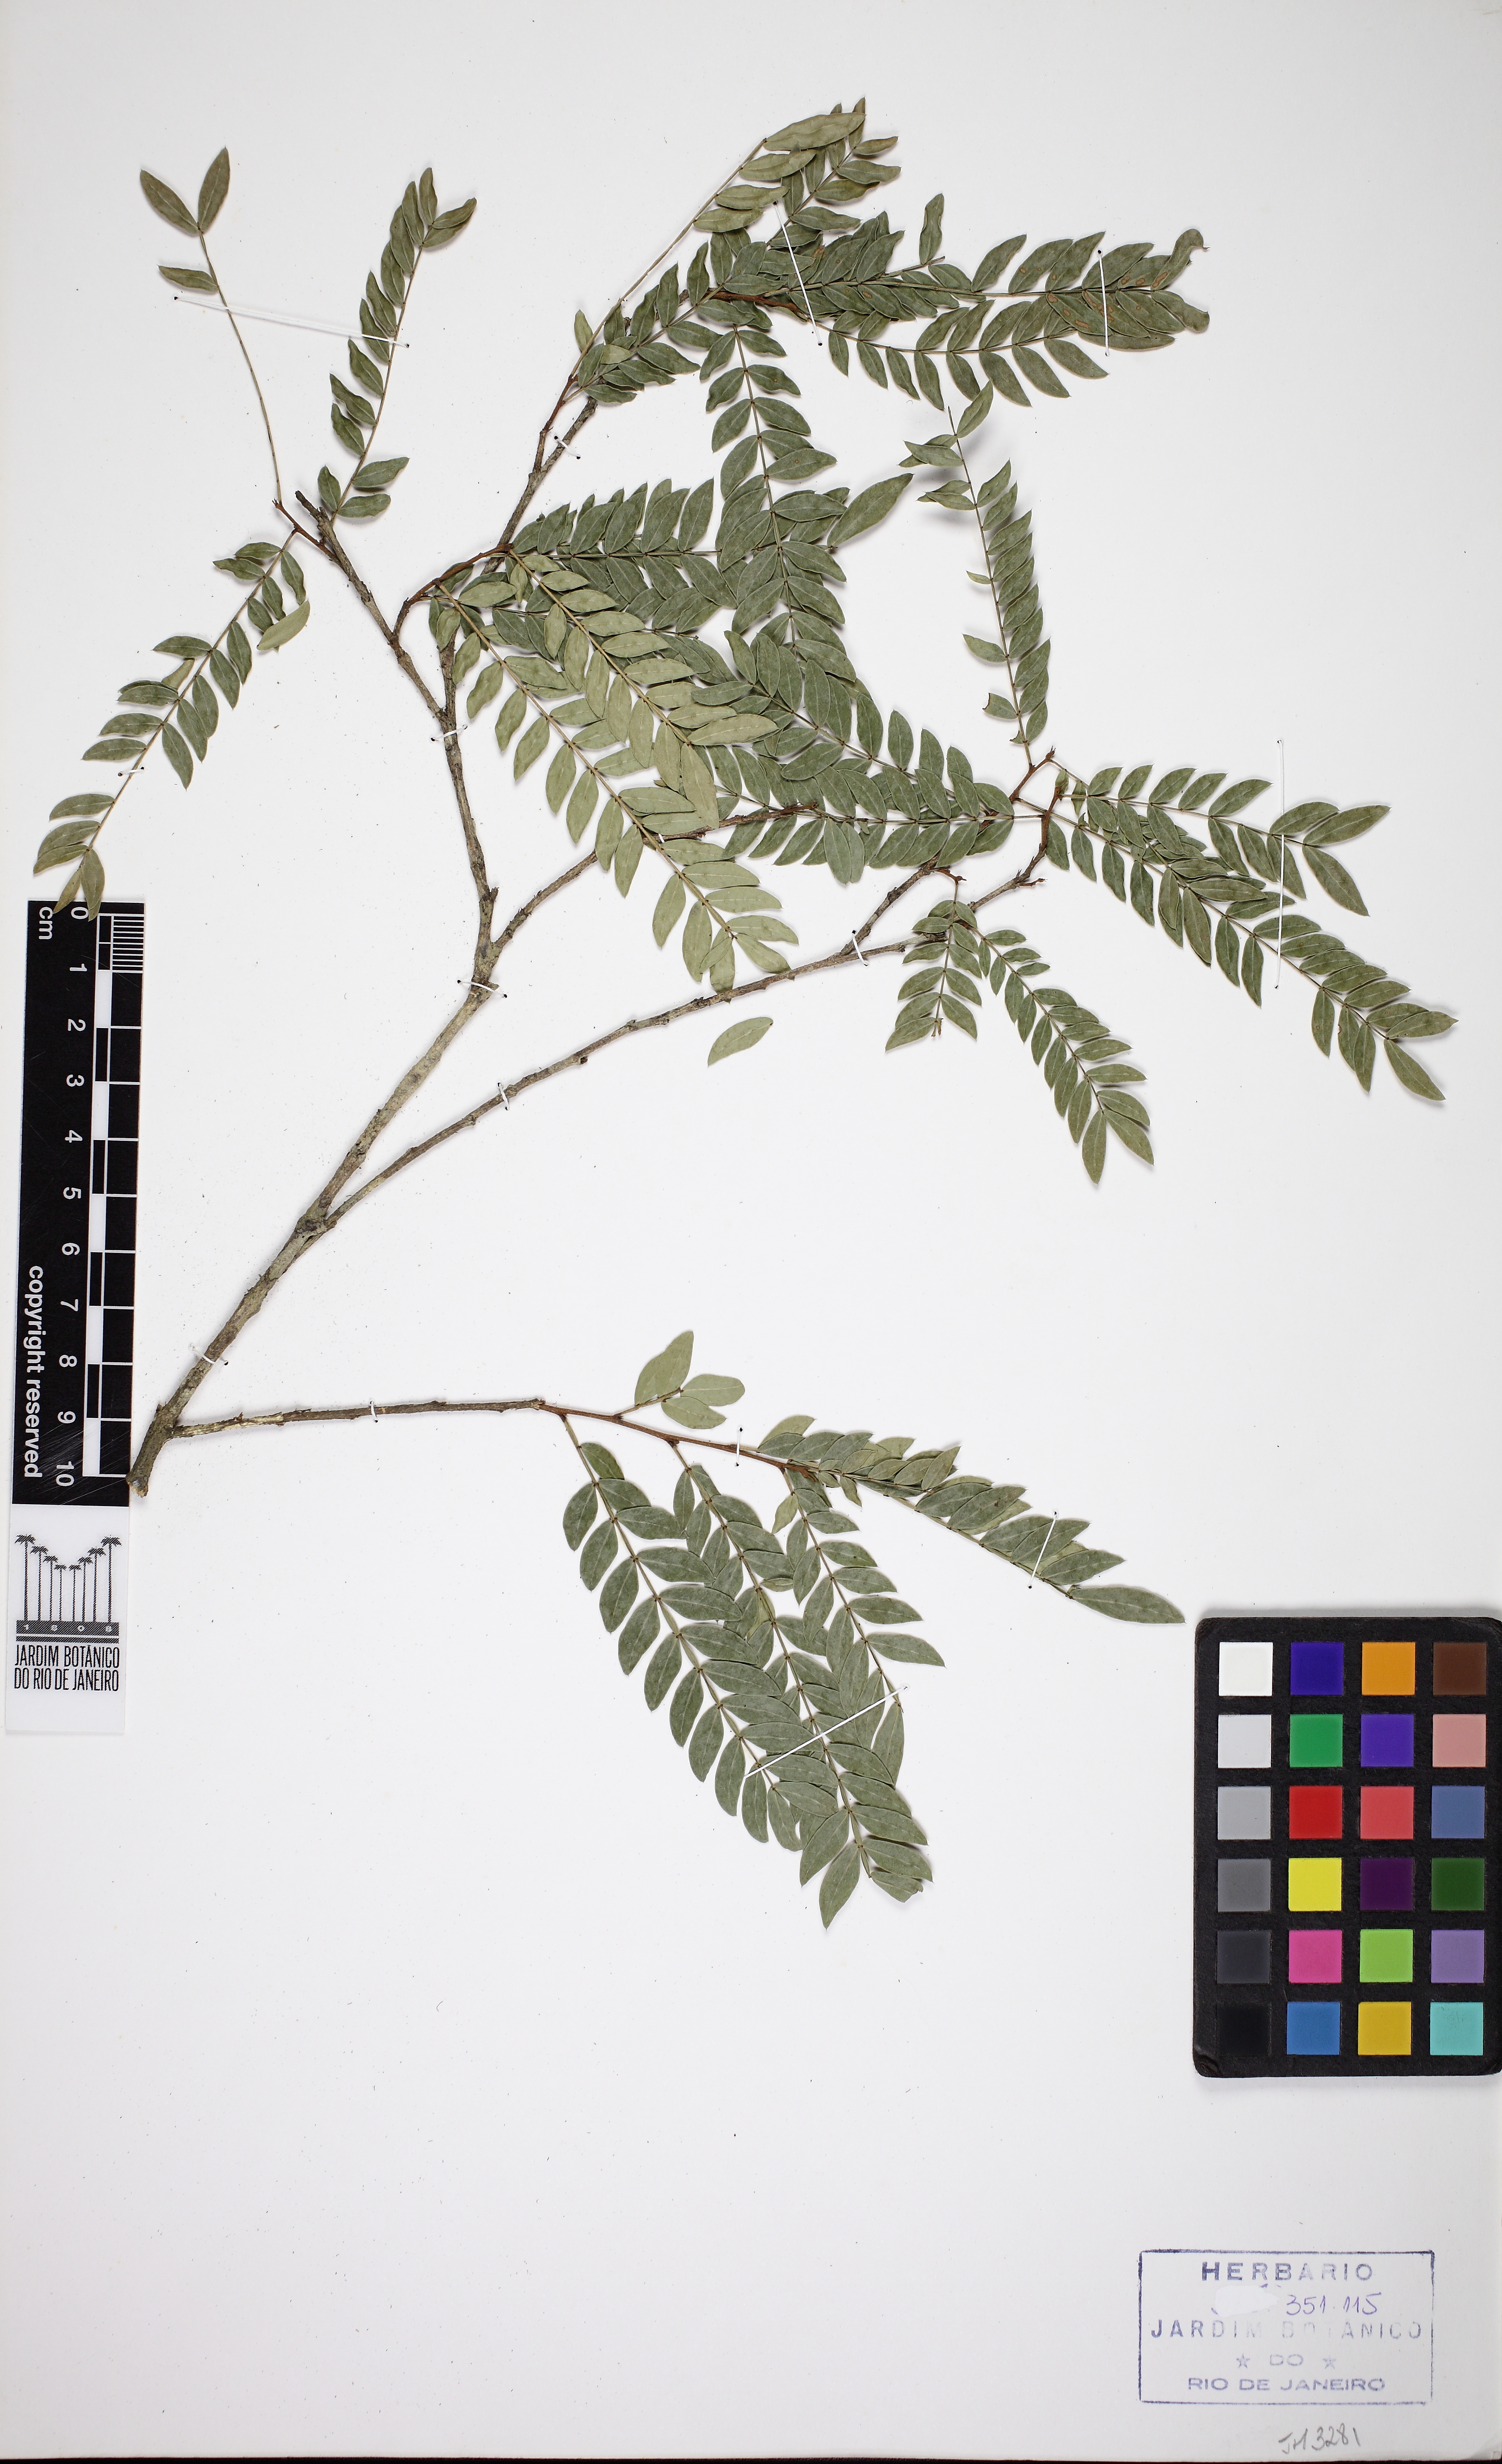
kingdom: Plantae
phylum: Tracheophyta
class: Magnoliopsida
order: Fabales
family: Fabaceae
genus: Inga
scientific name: Inga tenuis
